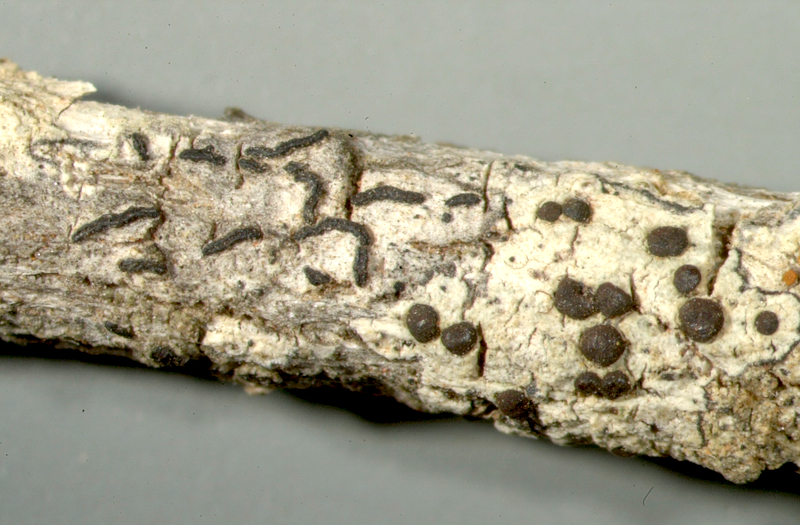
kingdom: Fungi
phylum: Ascomycota
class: Lecanoromycetes
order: Teloschistales
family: Teloschistaceae
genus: Caloplaca
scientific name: Caloplaca
